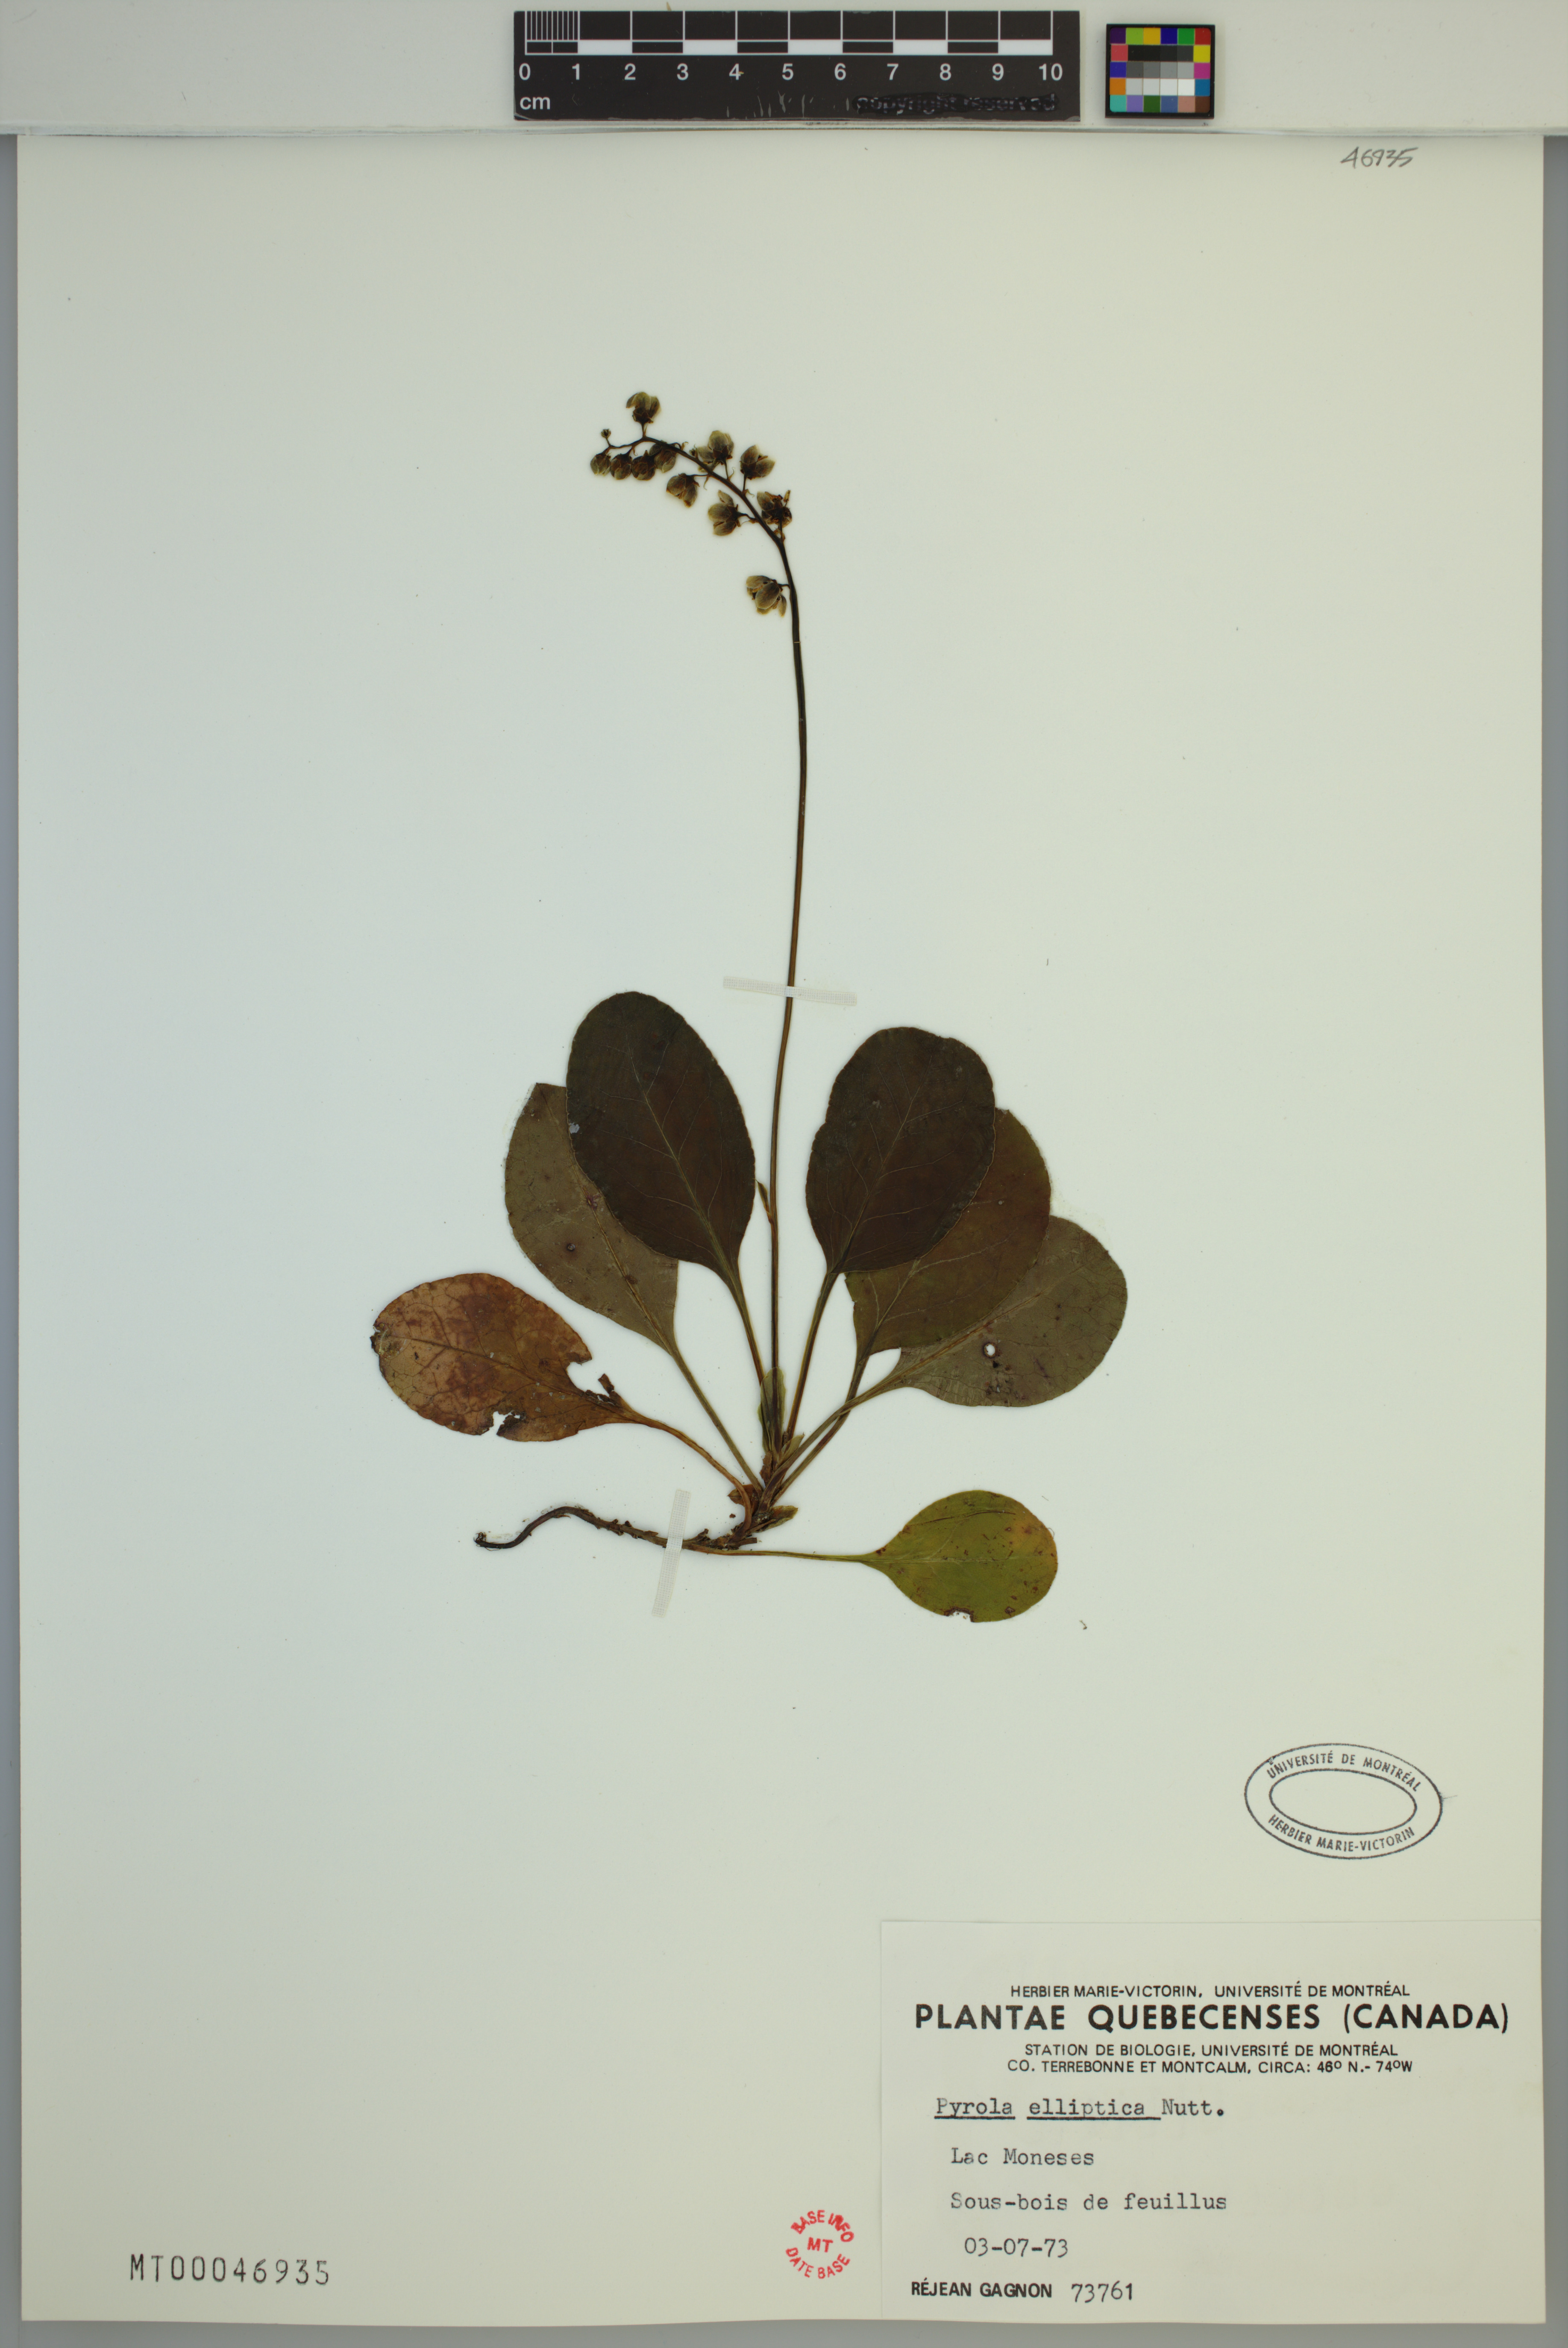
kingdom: Plantae
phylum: Tracheophyta
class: Magnoliopsida
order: Ericales
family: Ericaceae
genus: Pyrola
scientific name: Pyrola elliptica
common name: Shinleaf
